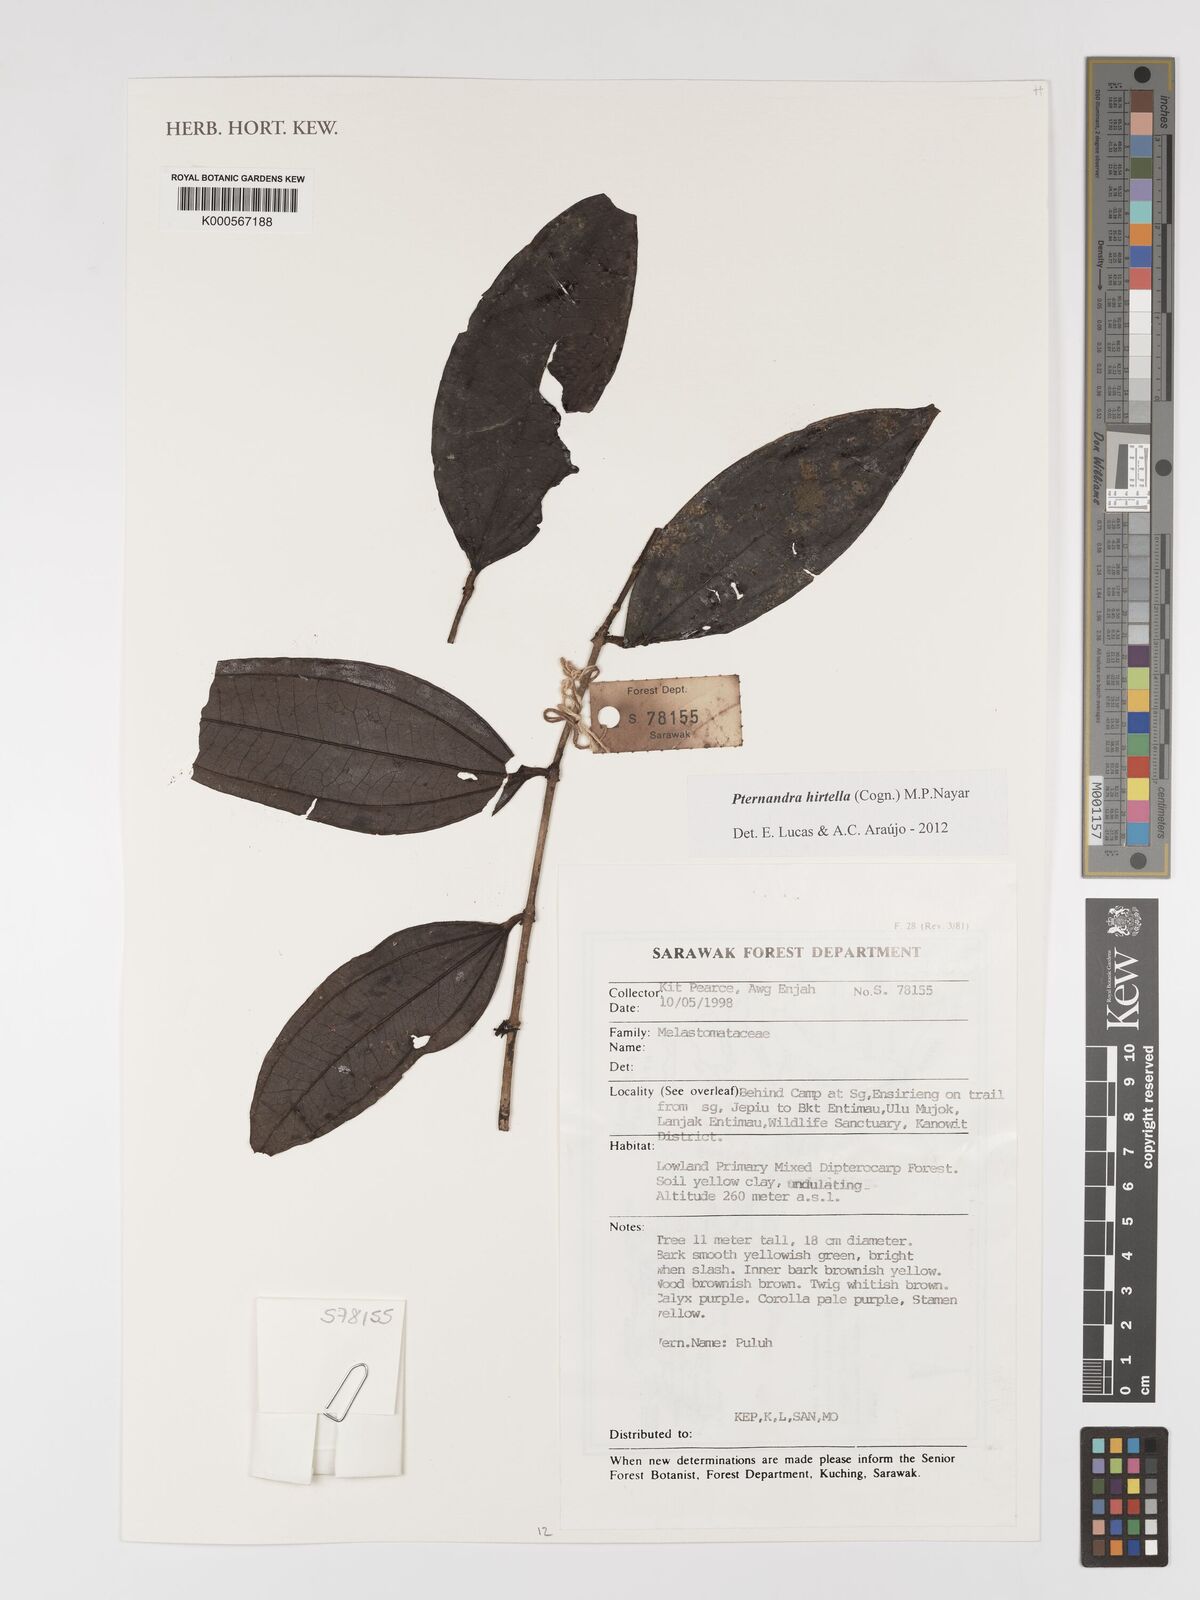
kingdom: Plantae
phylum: Tracheophyta
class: Magnoliopsida
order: Myrtales
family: Melastomataceae
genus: Pternandra
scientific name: Pternandra hirtella
